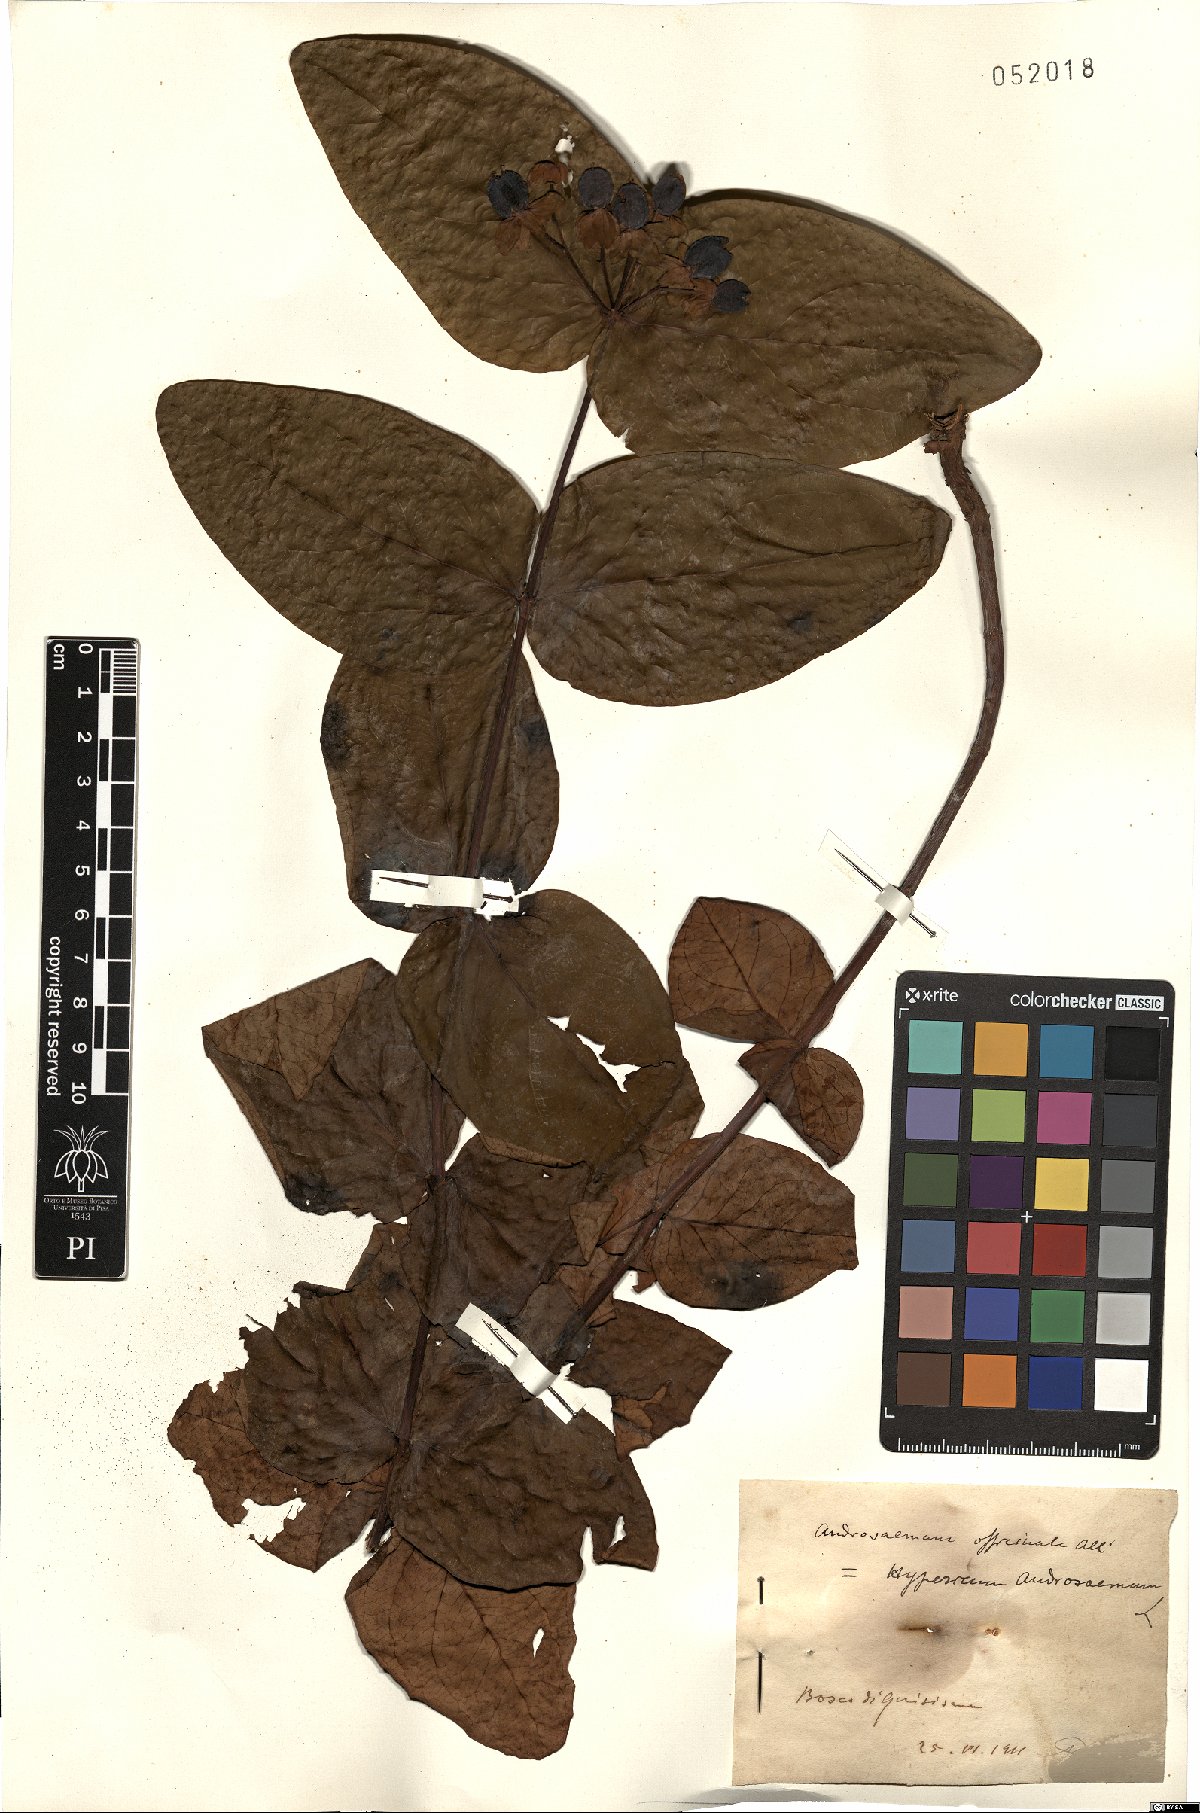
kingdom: Plantae
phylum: Tracheophyta
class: Magnoliopsida
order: Malpighiales
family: Hypericaceae
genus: Hypericum
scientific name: Hypericum androsaemum
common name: Sweet-amber
